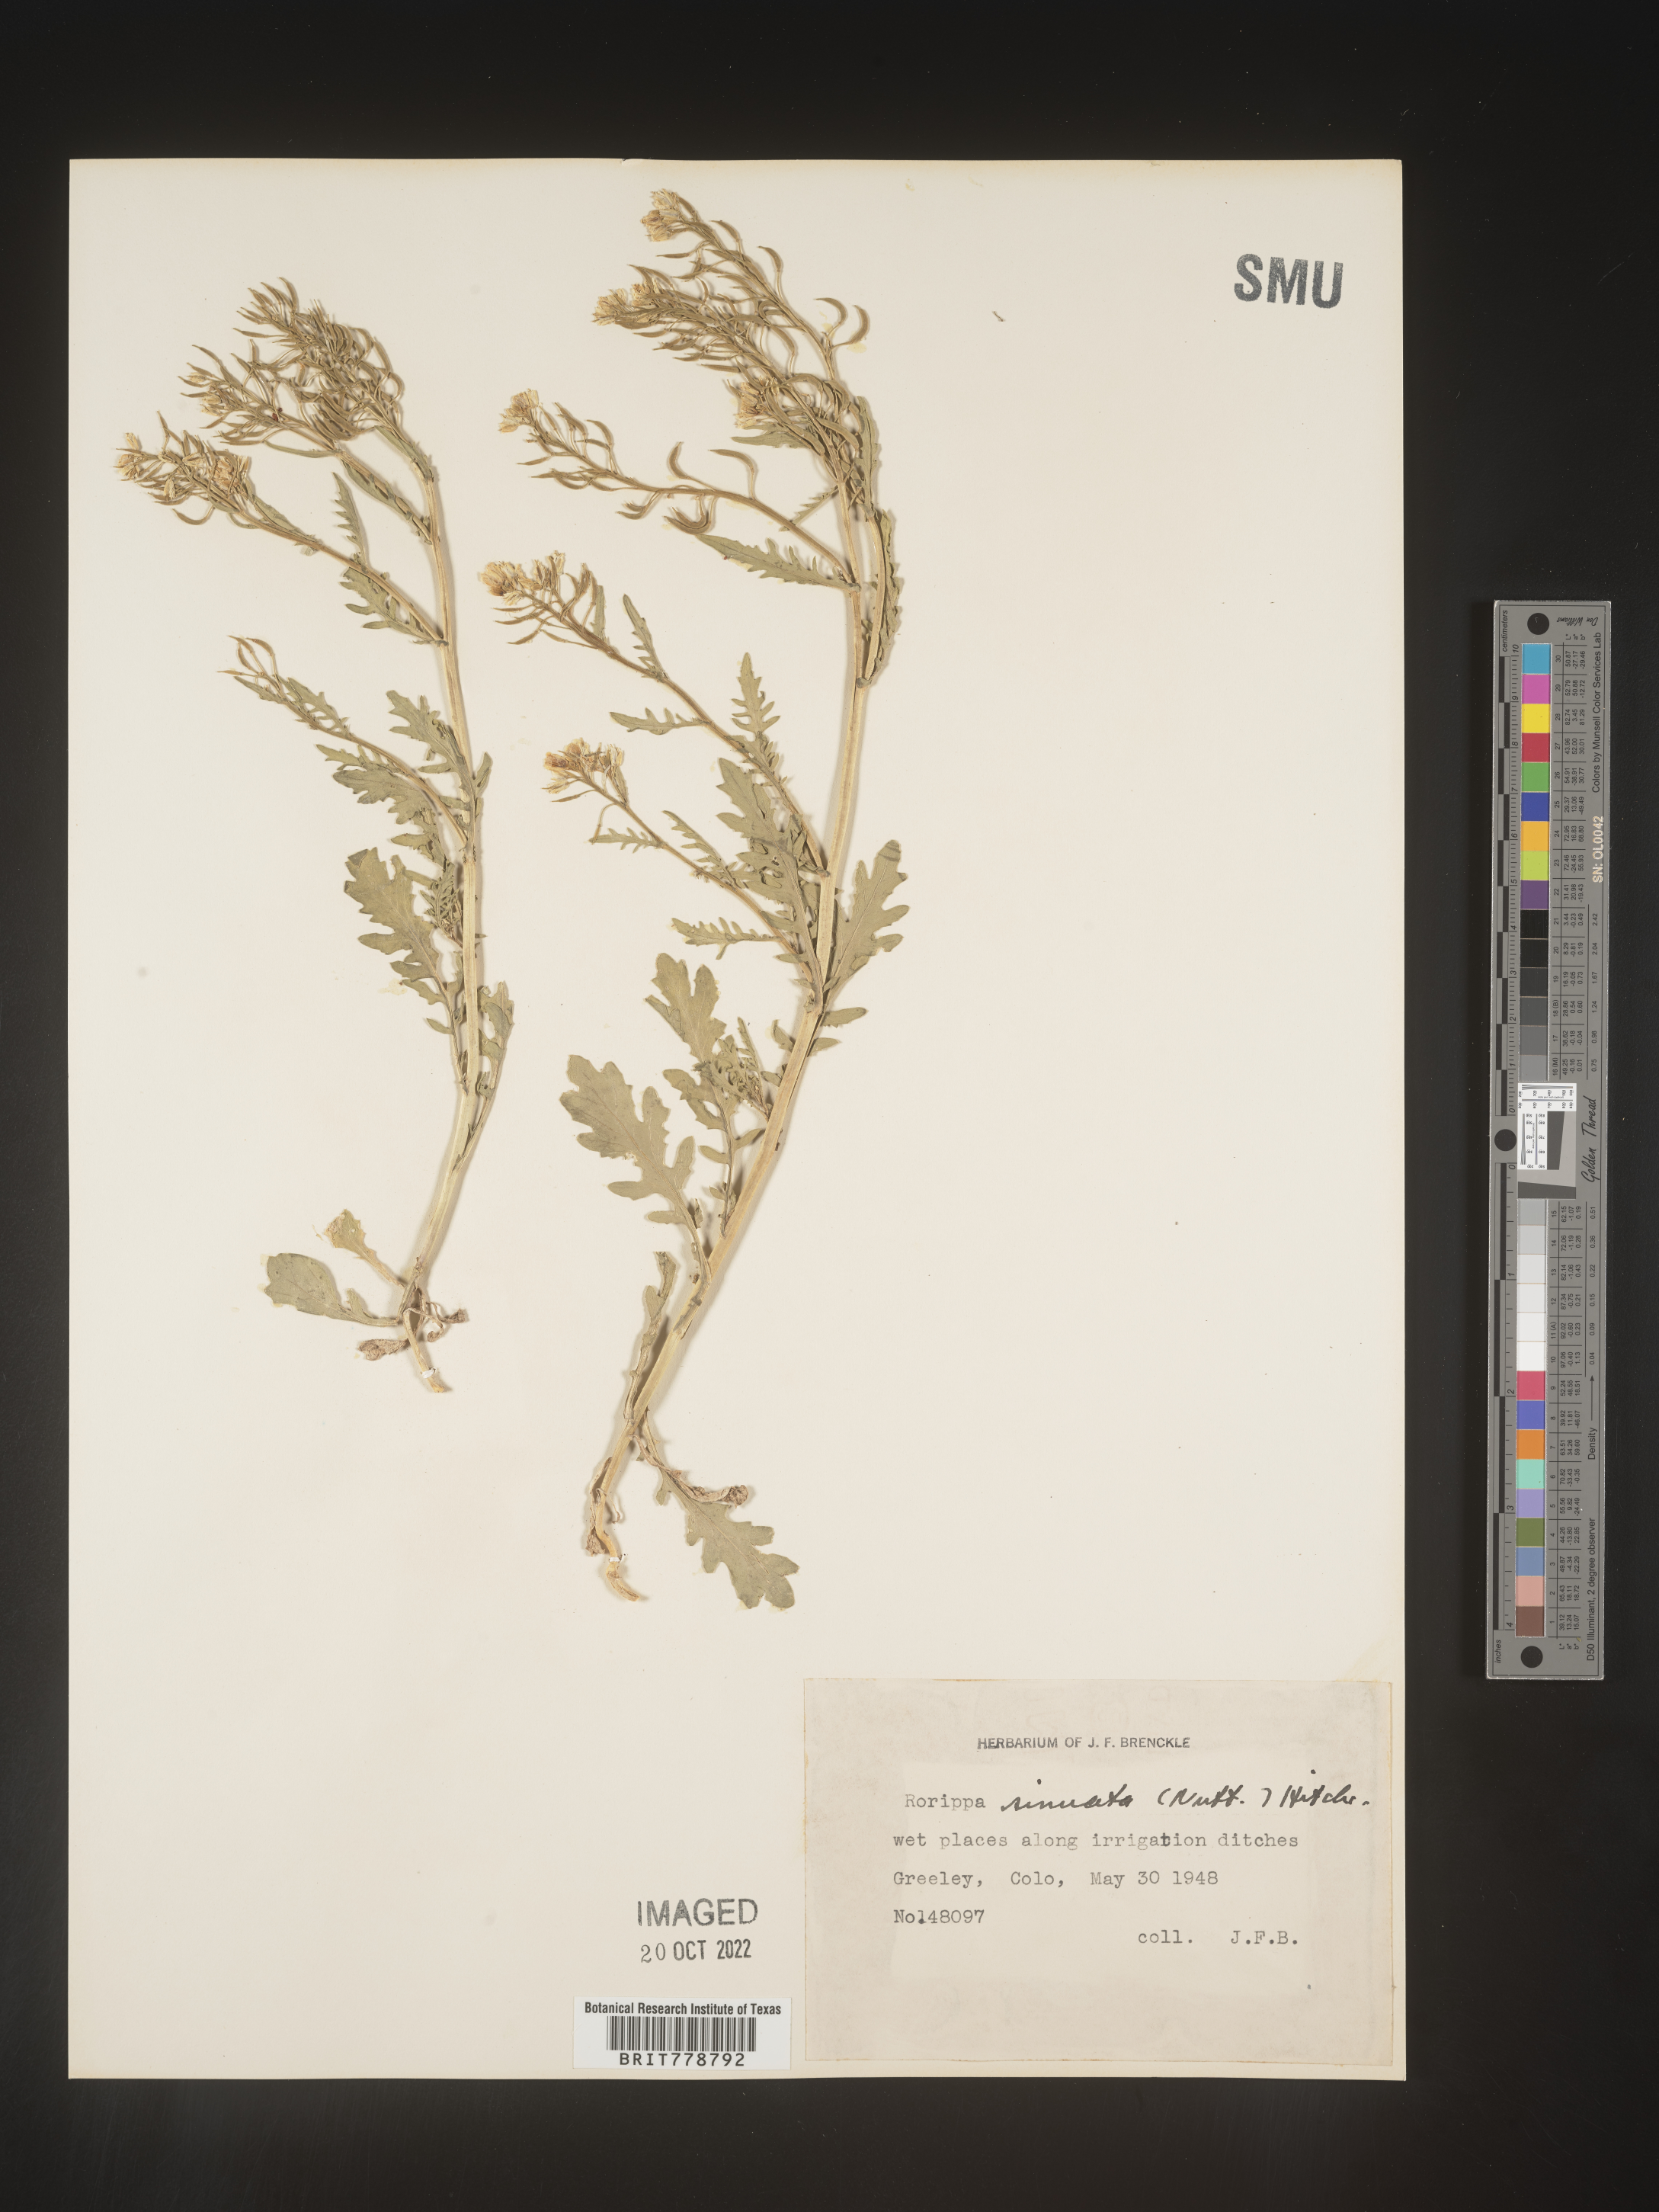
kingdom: Plantae
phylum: Tracheophyta
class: Magnoliopsida
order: Brassicales
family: Brassicaceae
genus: Rorippa
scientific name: Rorippa sinuata
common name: Spread yellow cress
